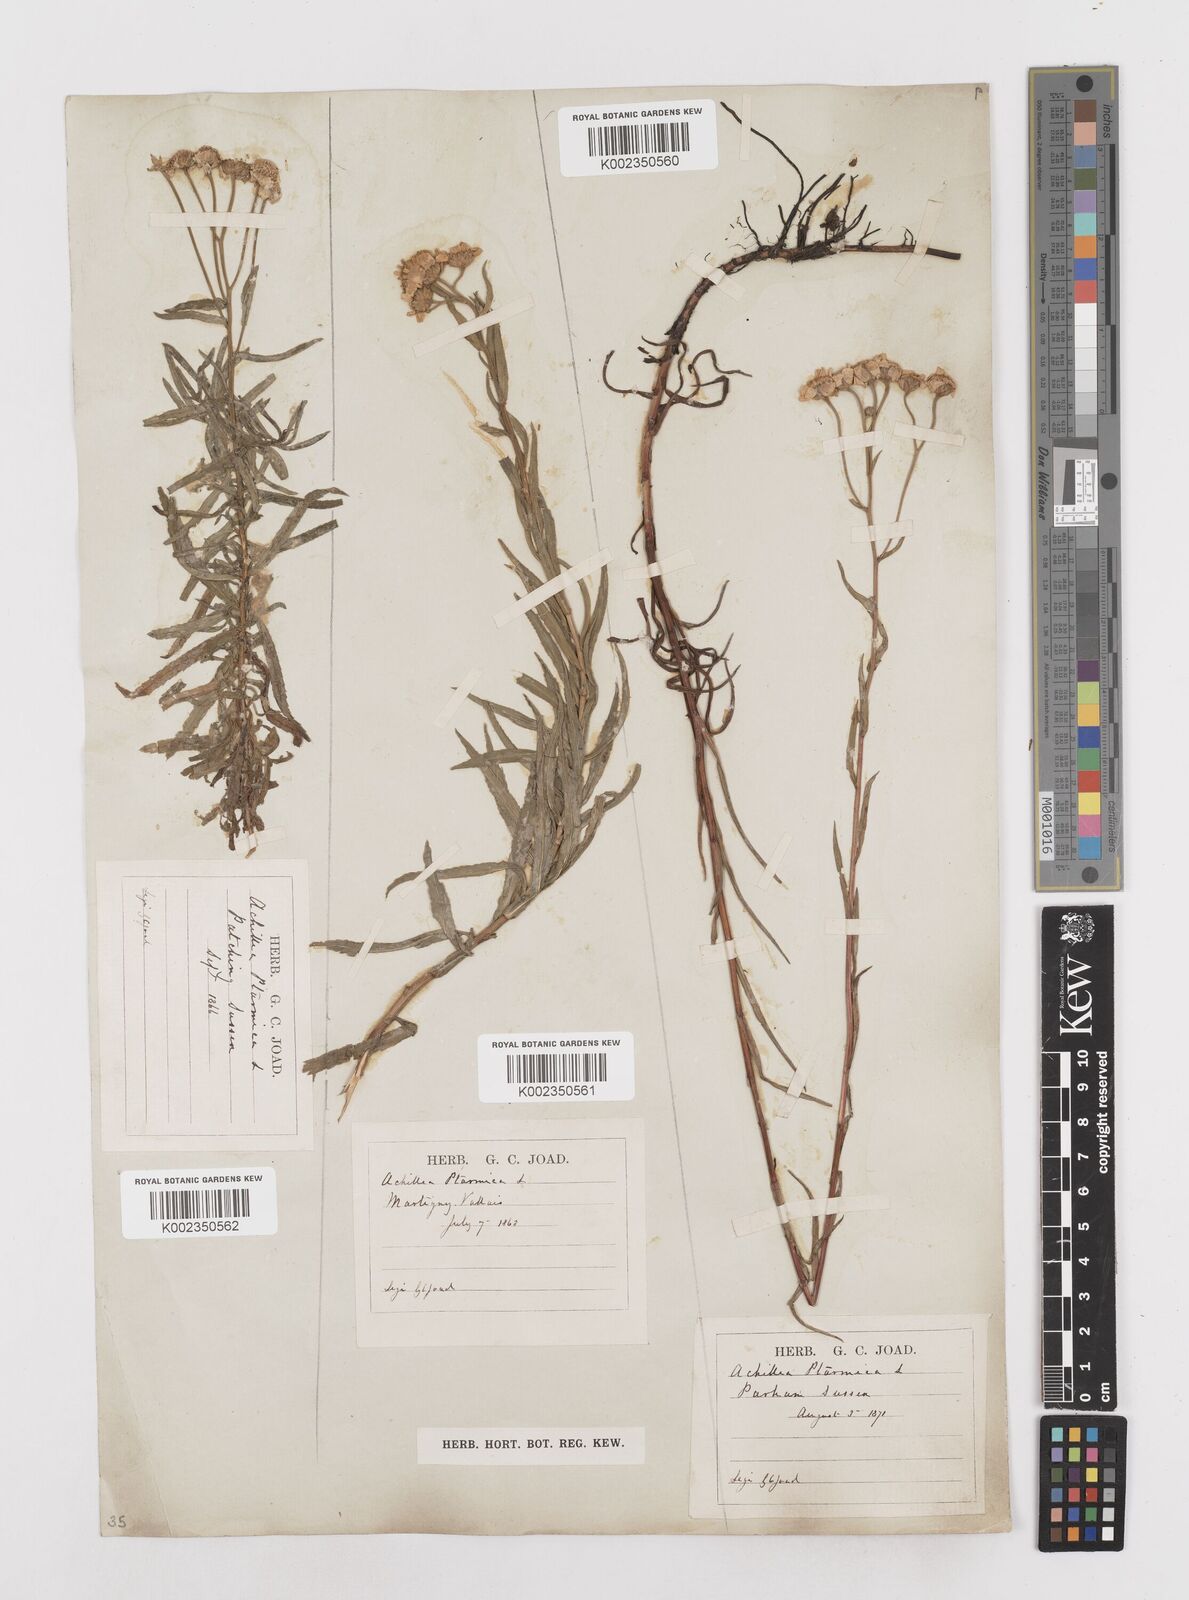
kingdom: Plantae
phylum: Tracheophyta
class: Magnoliopsida
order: Asterales
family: Asteraceae
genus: Achillea
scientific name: Achillea ptarmica
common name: Sneezeweed
